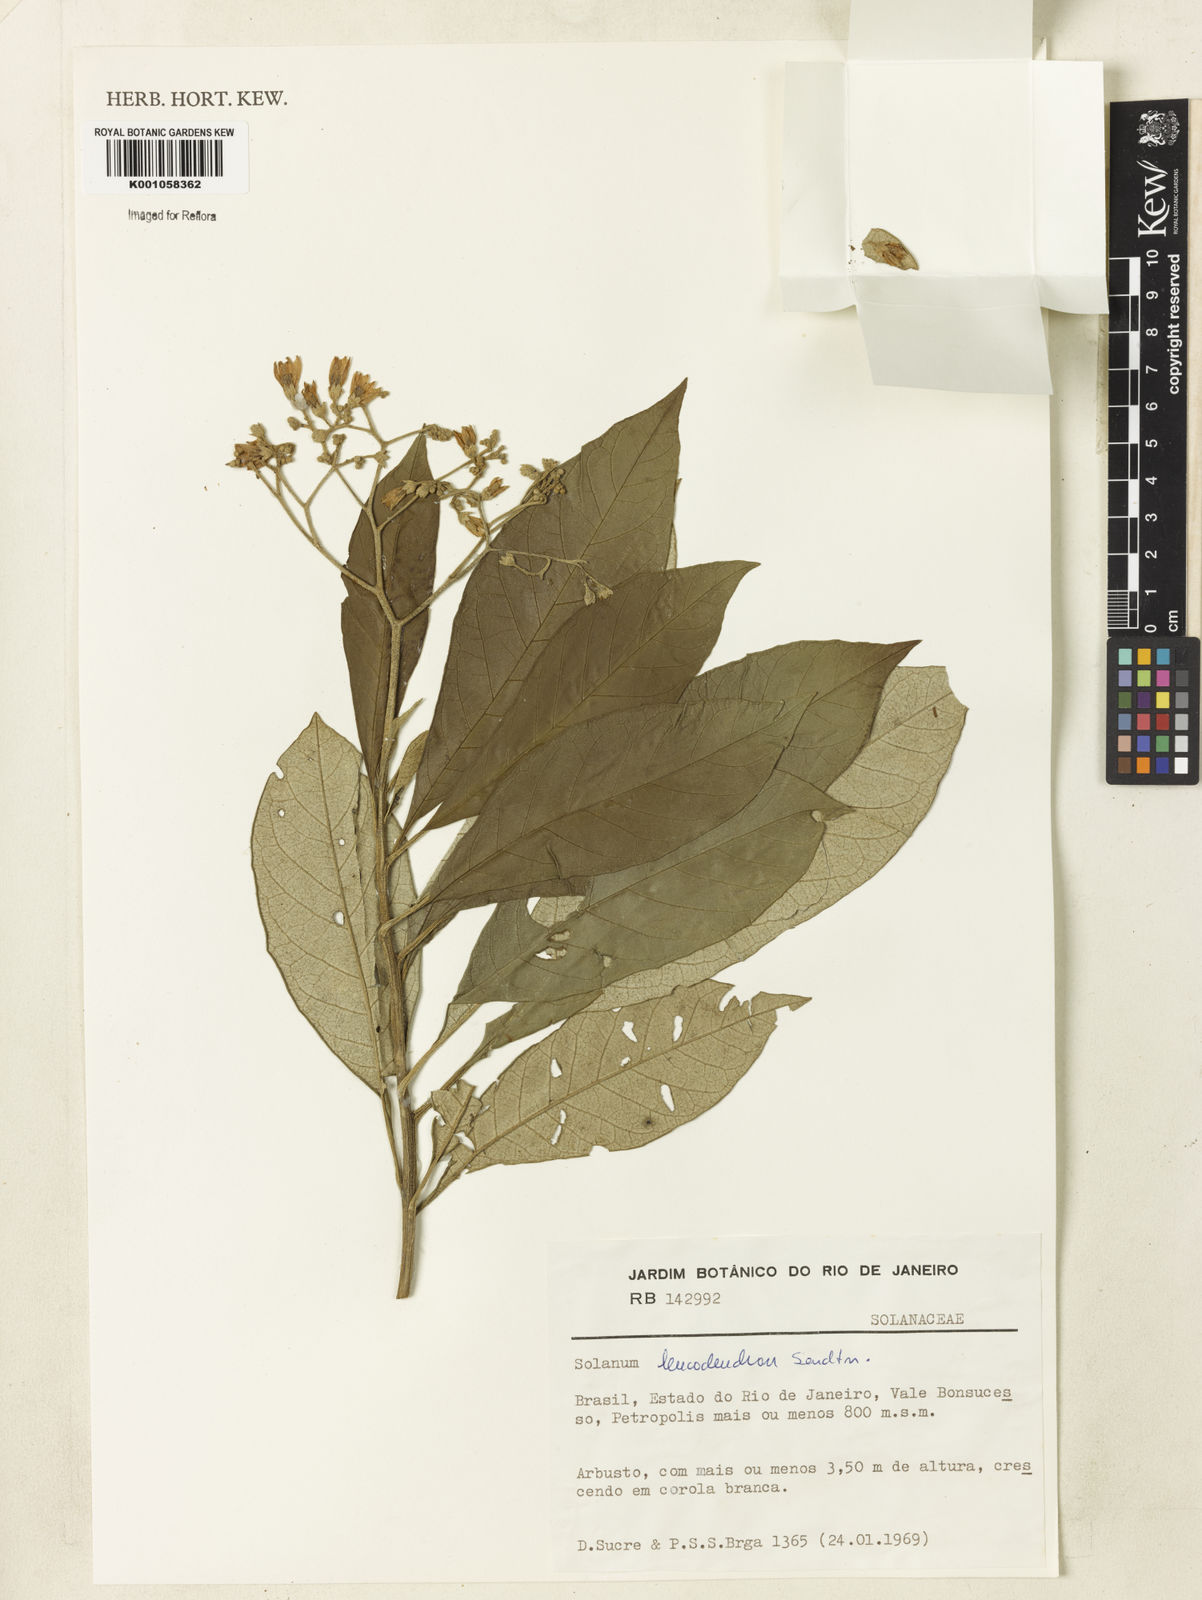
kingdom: Plantae
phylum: Tracheophyta
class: Magnoliopsida
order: Solanales
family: Solanaceae
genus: Solanum
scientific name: Solanum leucodendron
